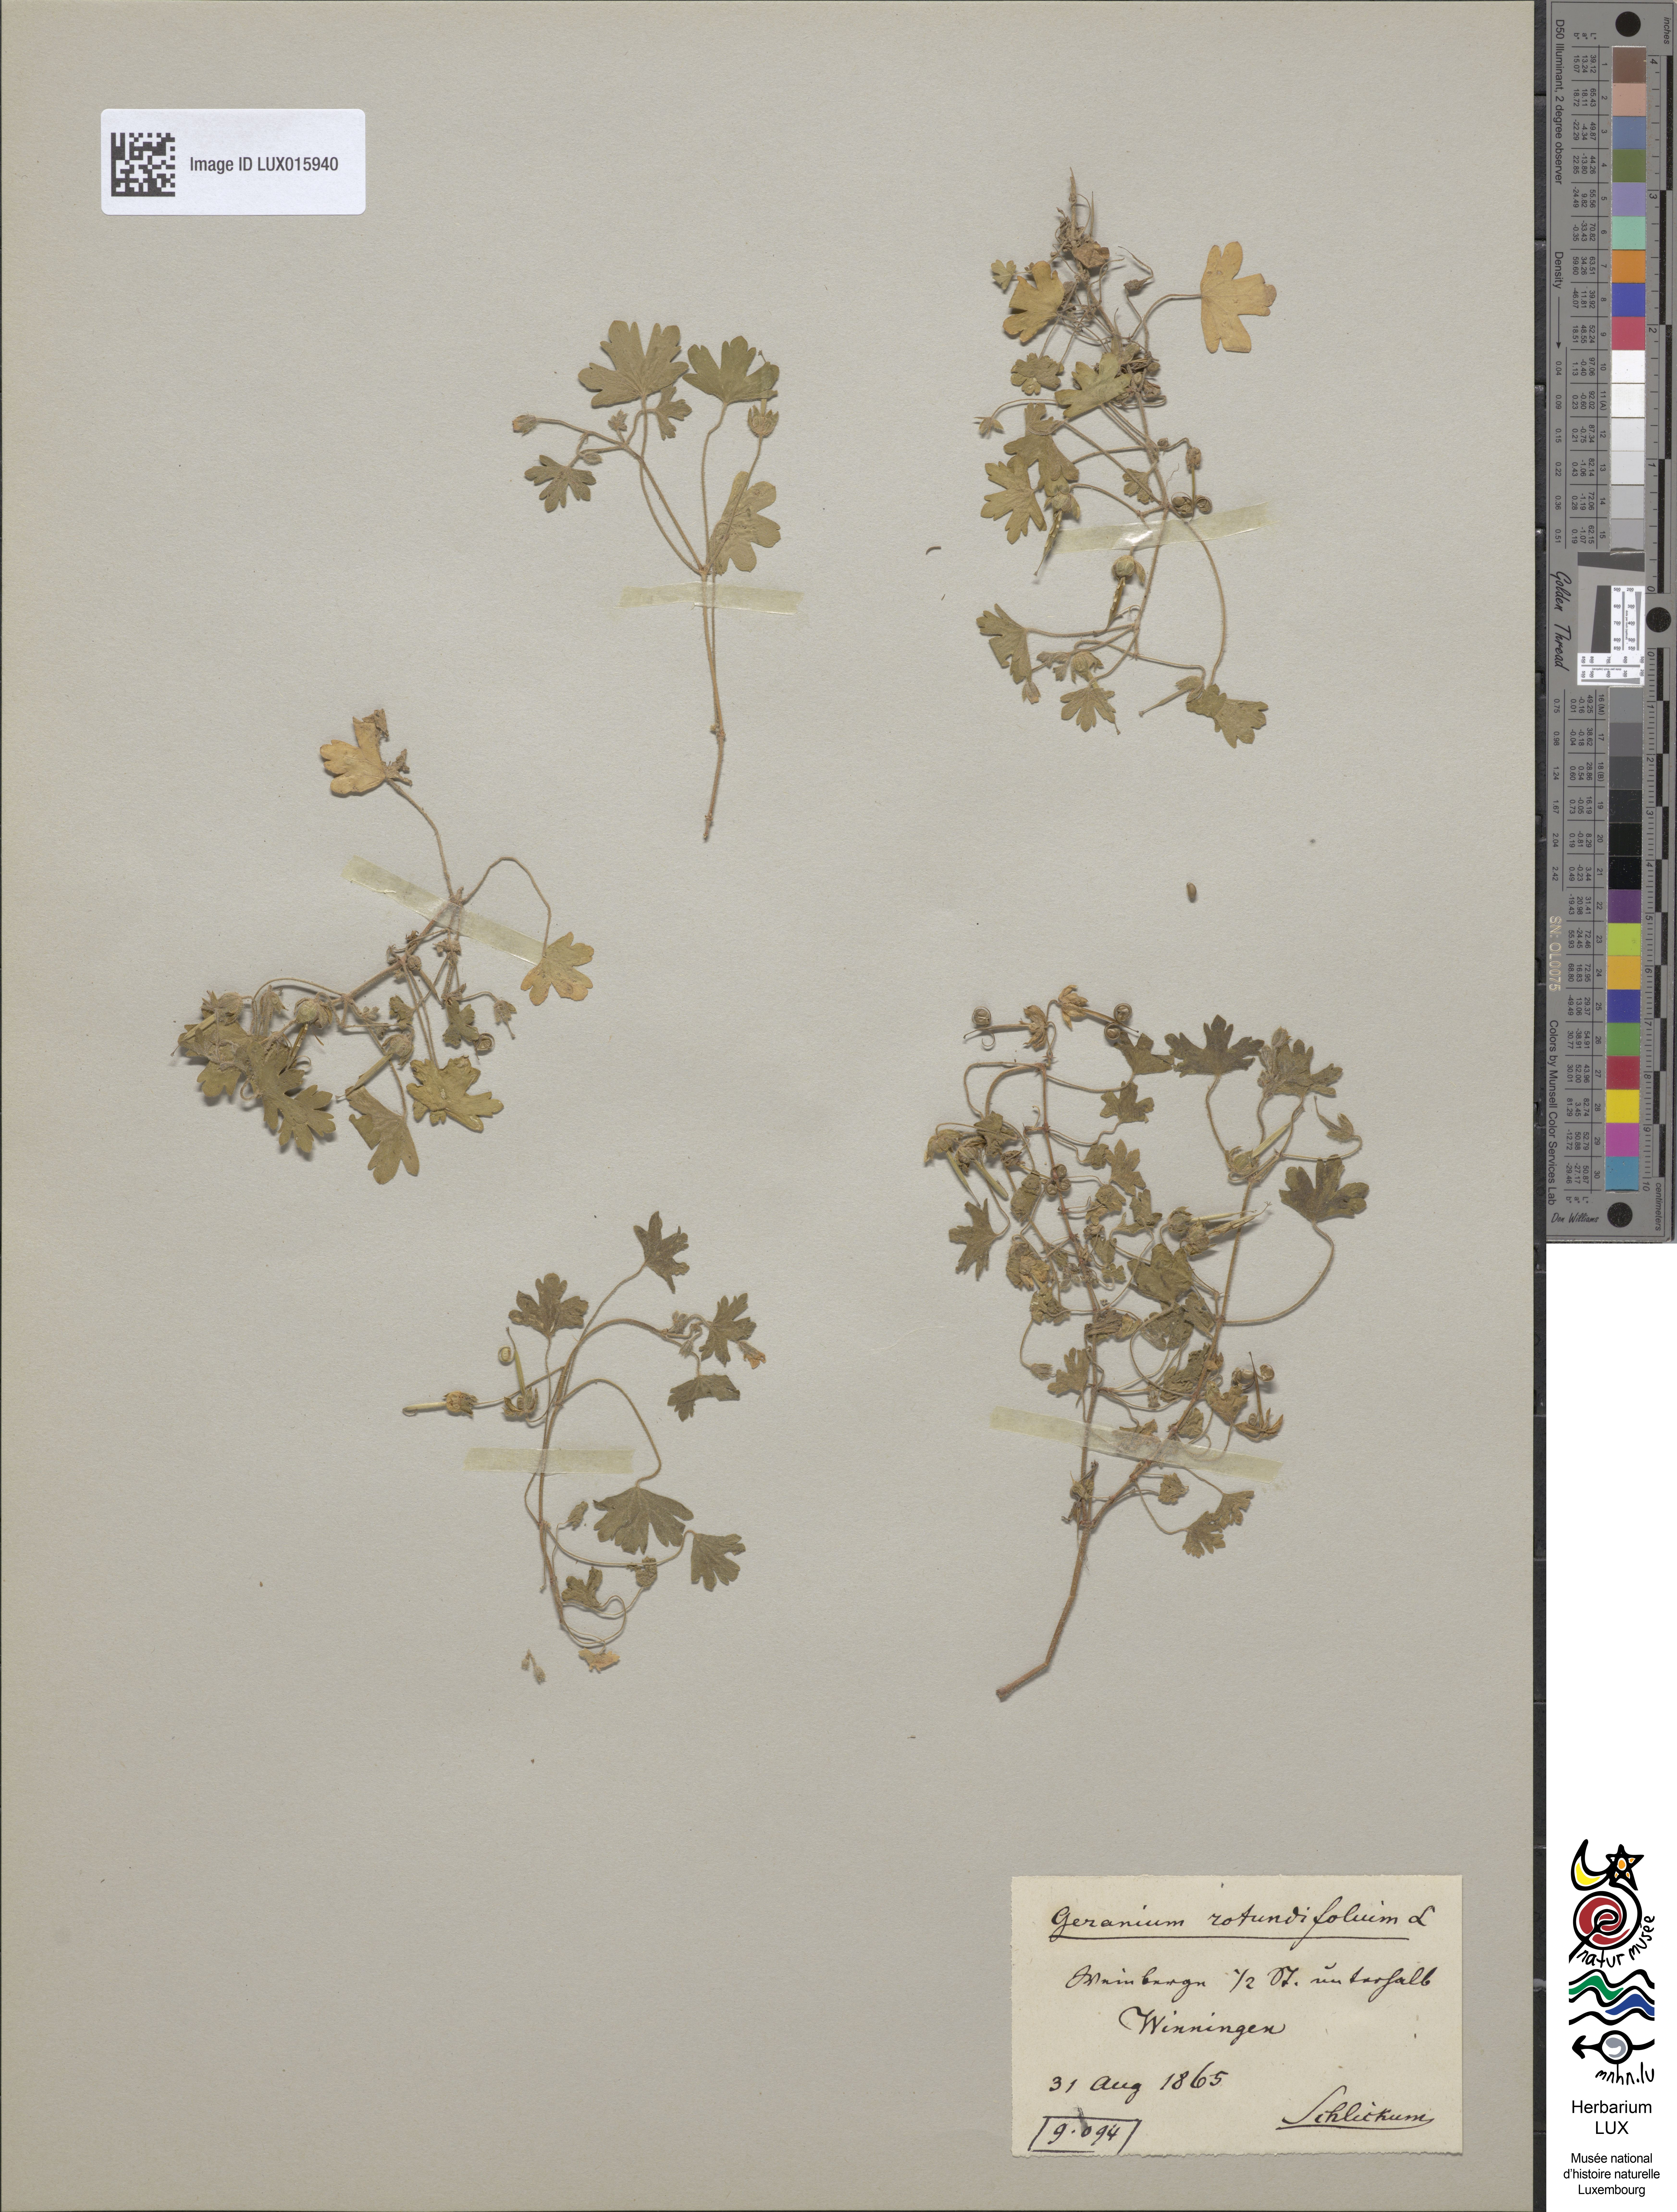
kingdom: Plantae
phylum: Tracheophyta
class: Magnoliopsida
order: Geraniales
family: Geraniaceae
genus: Geranium
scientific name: Geranium rotundifolium
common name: Round-leaved crane's-bill
